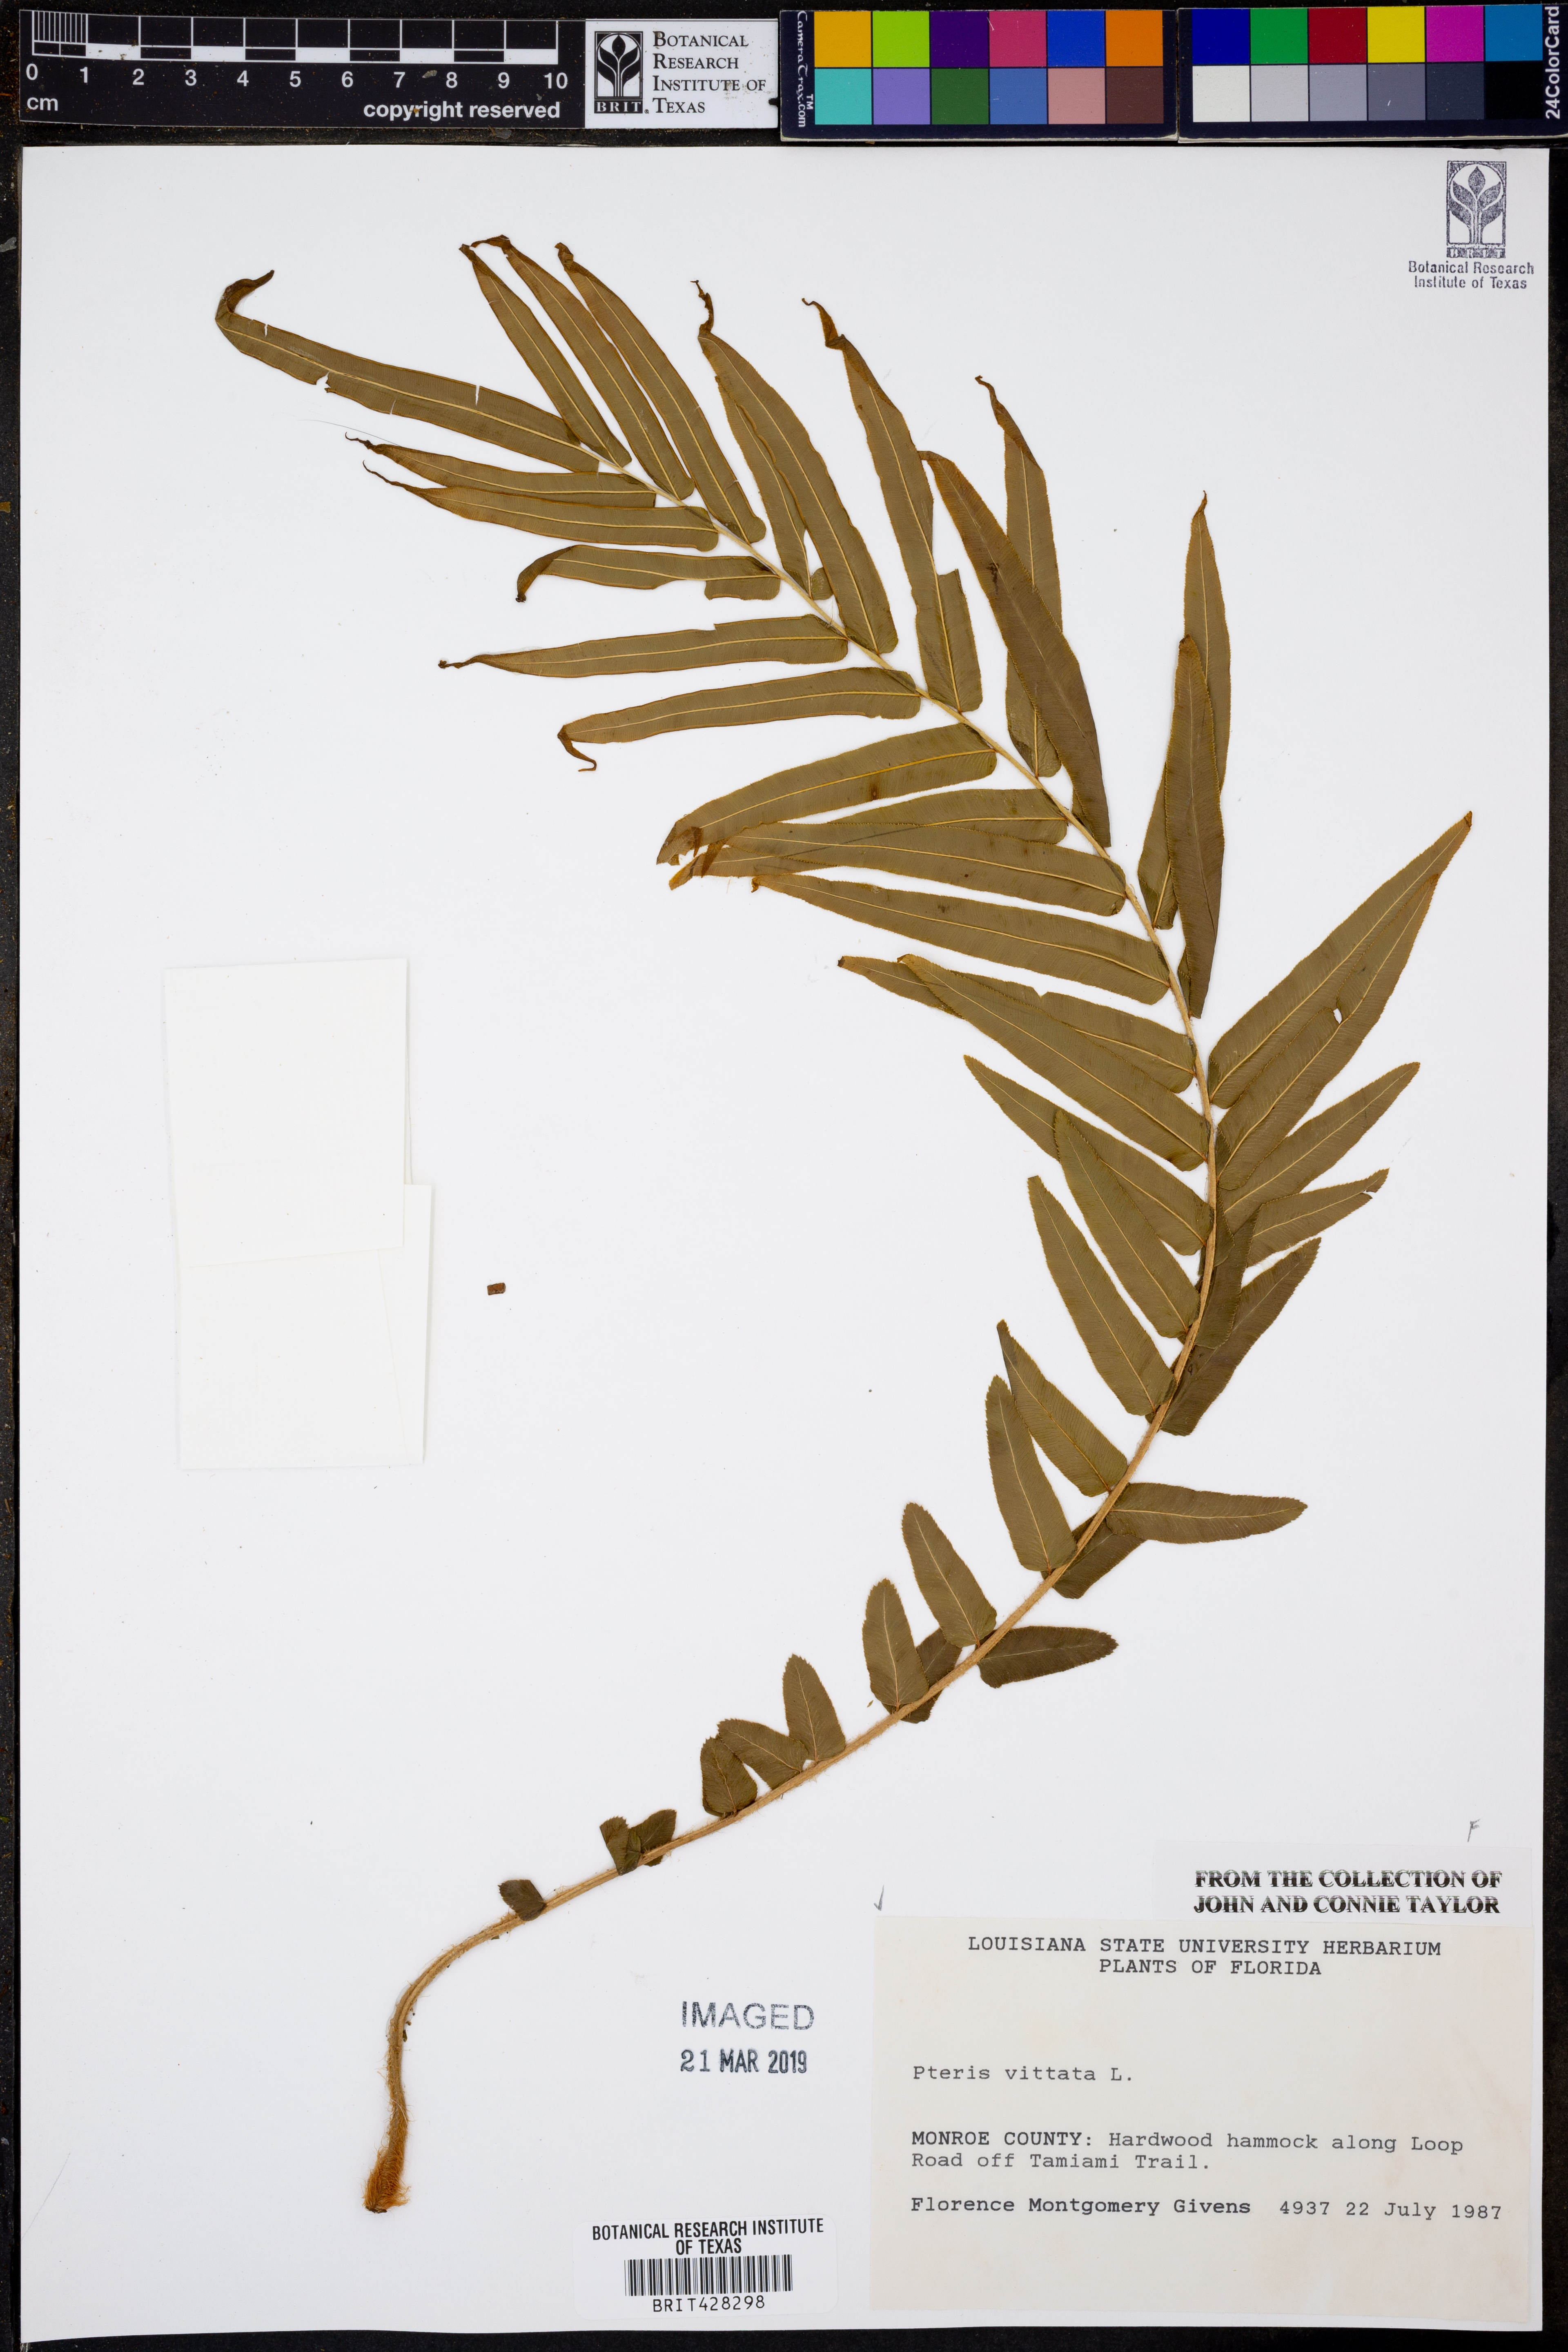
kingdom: Plantae
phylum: Tracheophyta
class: Polypodiopsida
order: Polypodiales
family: Pteridaceae
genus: Pteris
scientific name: Pteris vittata
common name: Ladder brake
